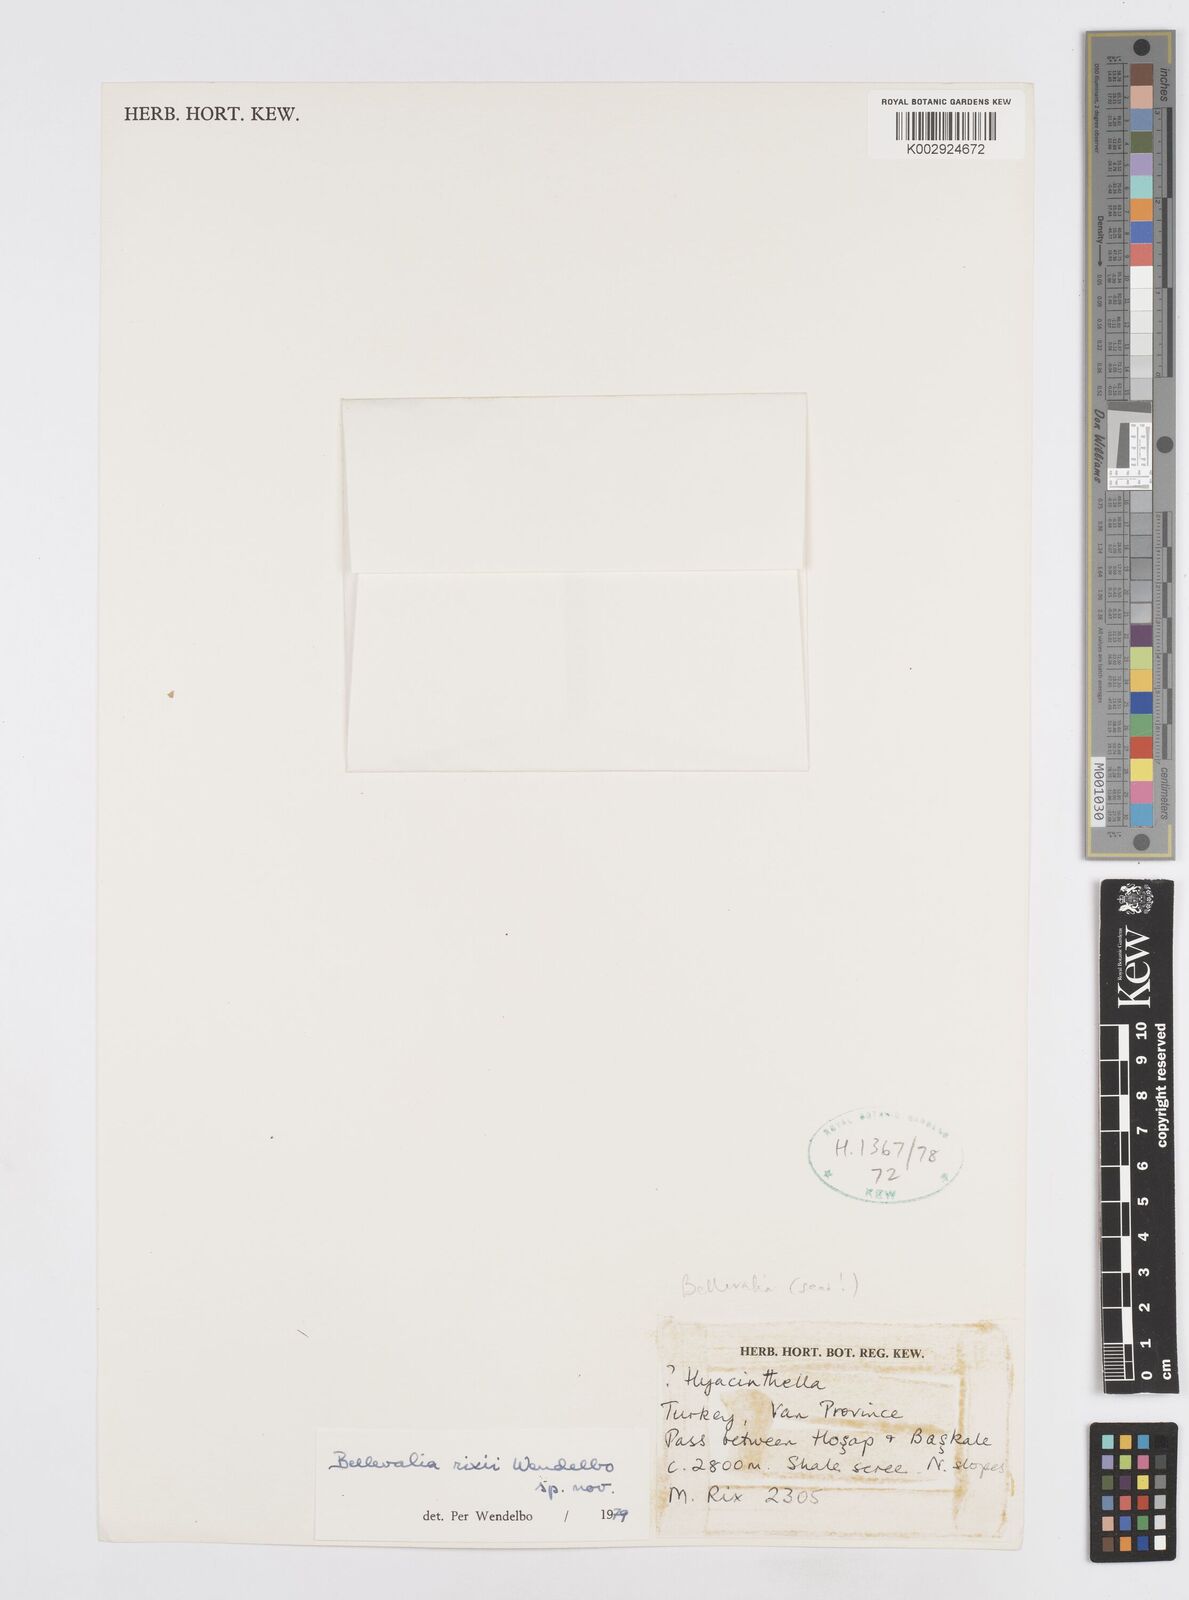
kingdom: Plantae
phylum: Tracheophyta
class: Liliopsida
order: Asparagales
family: Asparagaceae
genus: Bellevalia
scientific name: Bellevalia rixii
